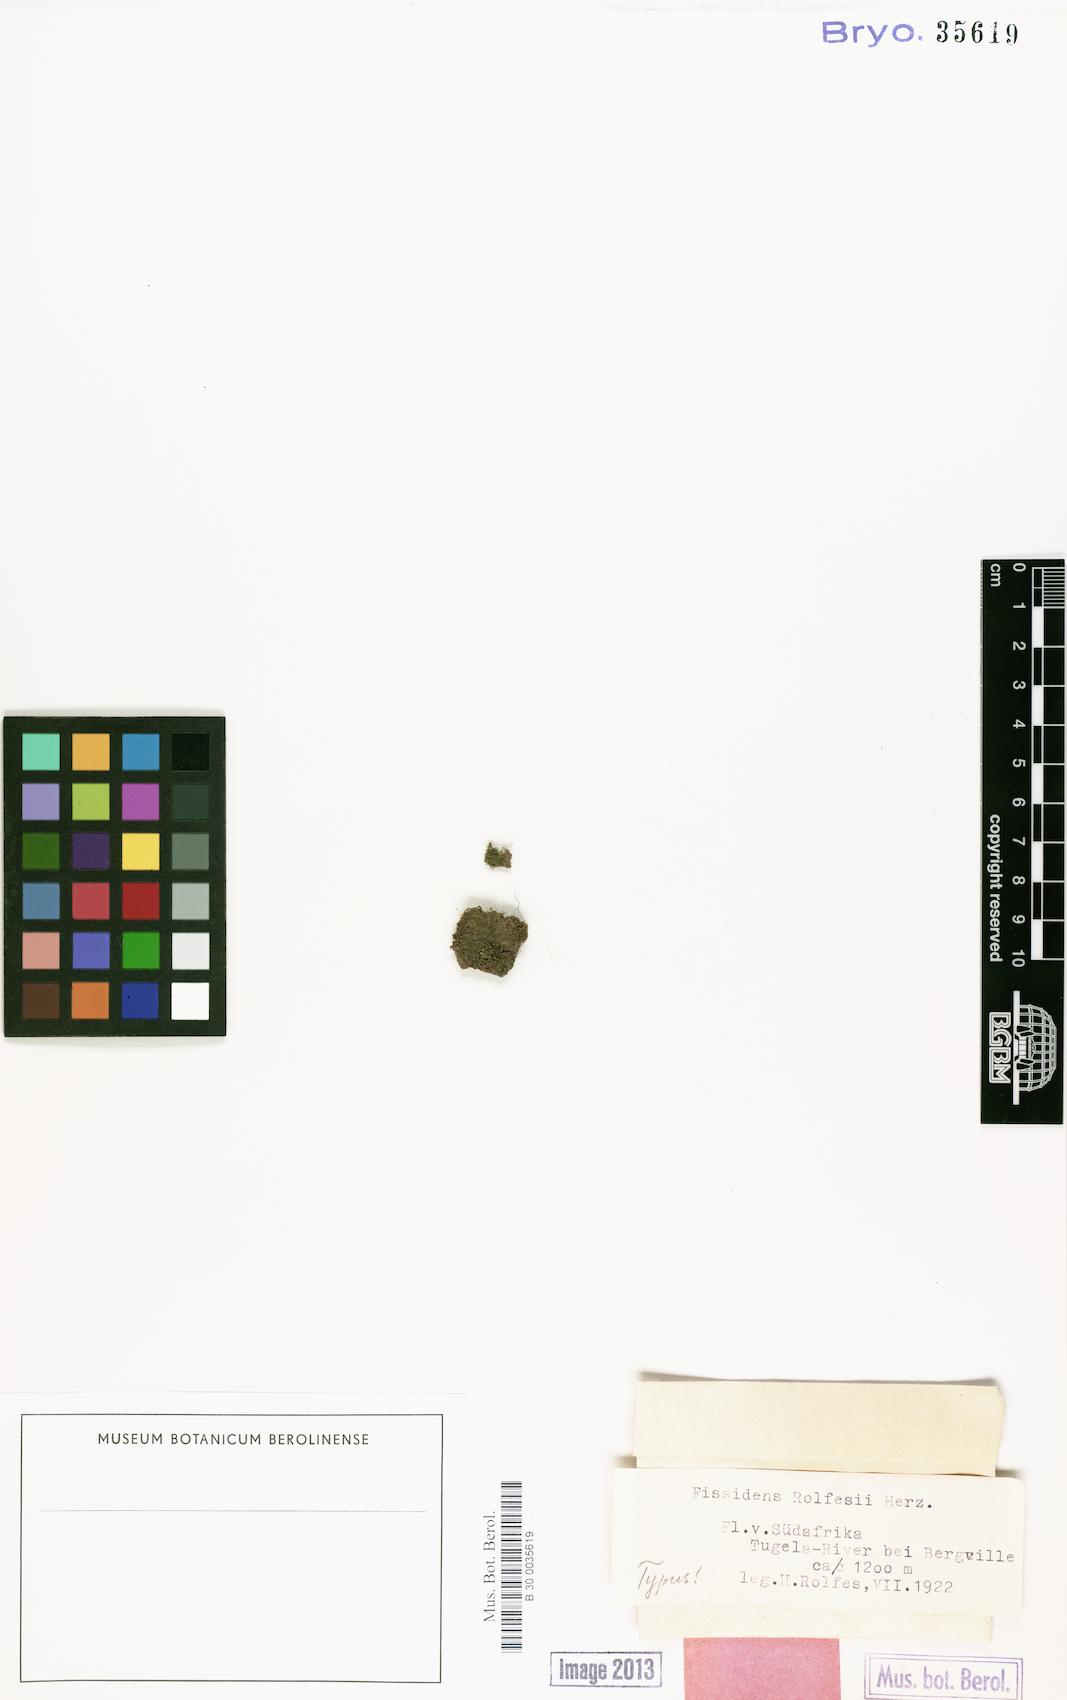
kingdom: Plantae
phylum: Bryophyta
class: Bryopsida
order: Dicranales
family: Fissidentaceae
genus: Fissidens
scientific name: Fissidens
